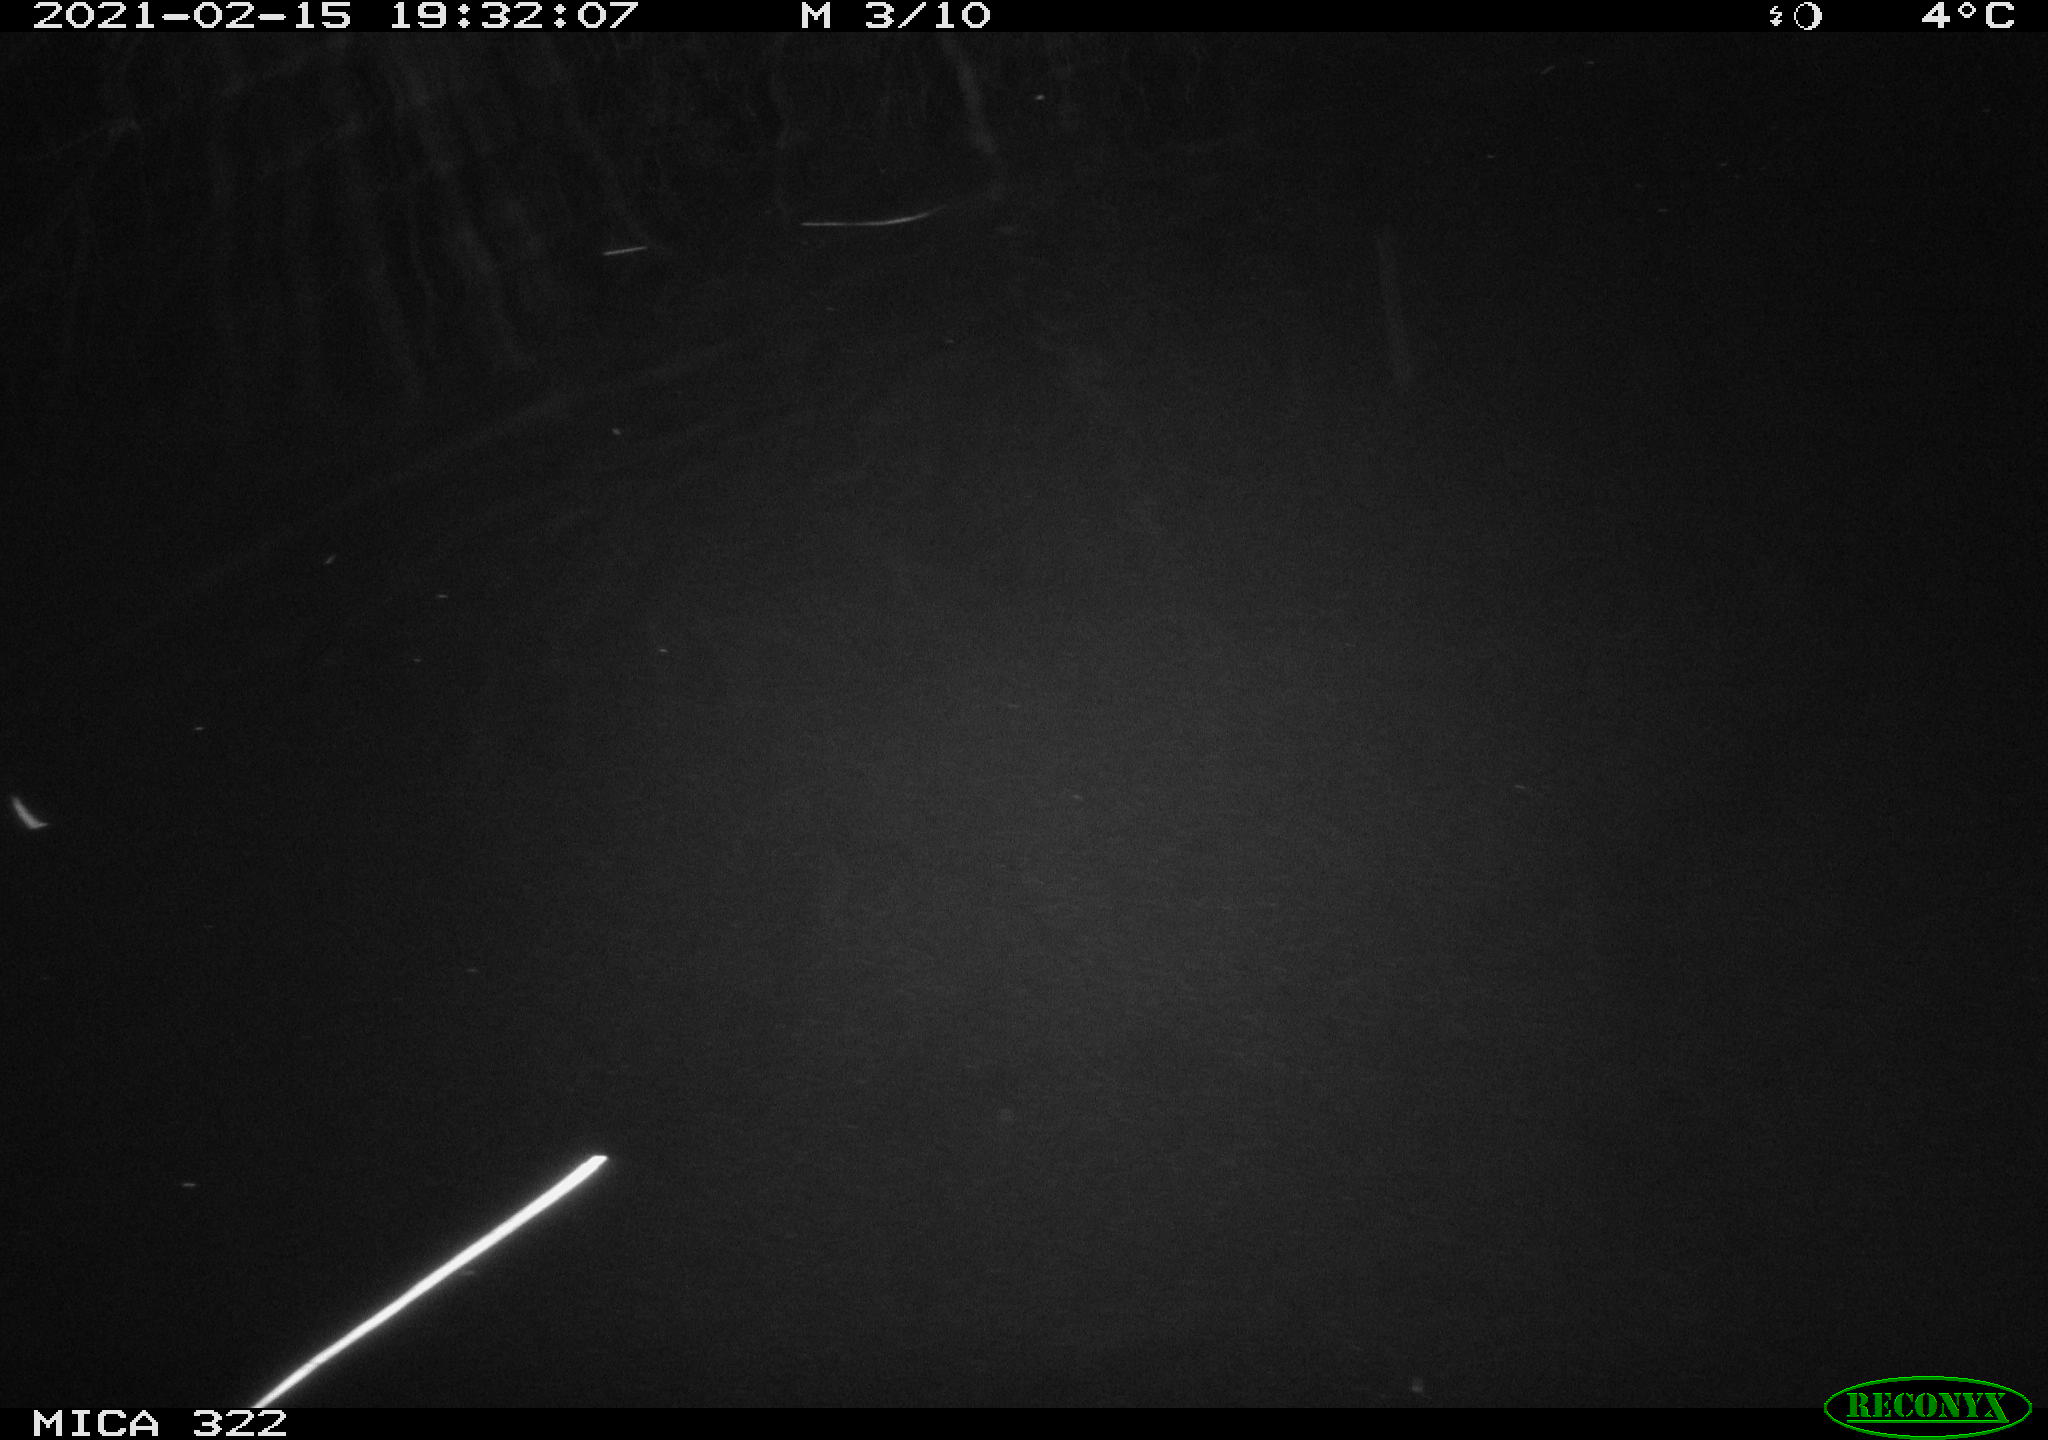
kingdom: Animalia
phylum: Chordata
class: Aves
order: Gruiformes
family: Rallidae
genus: Fulica
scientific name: Fulica atra
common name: Eurasian coot
